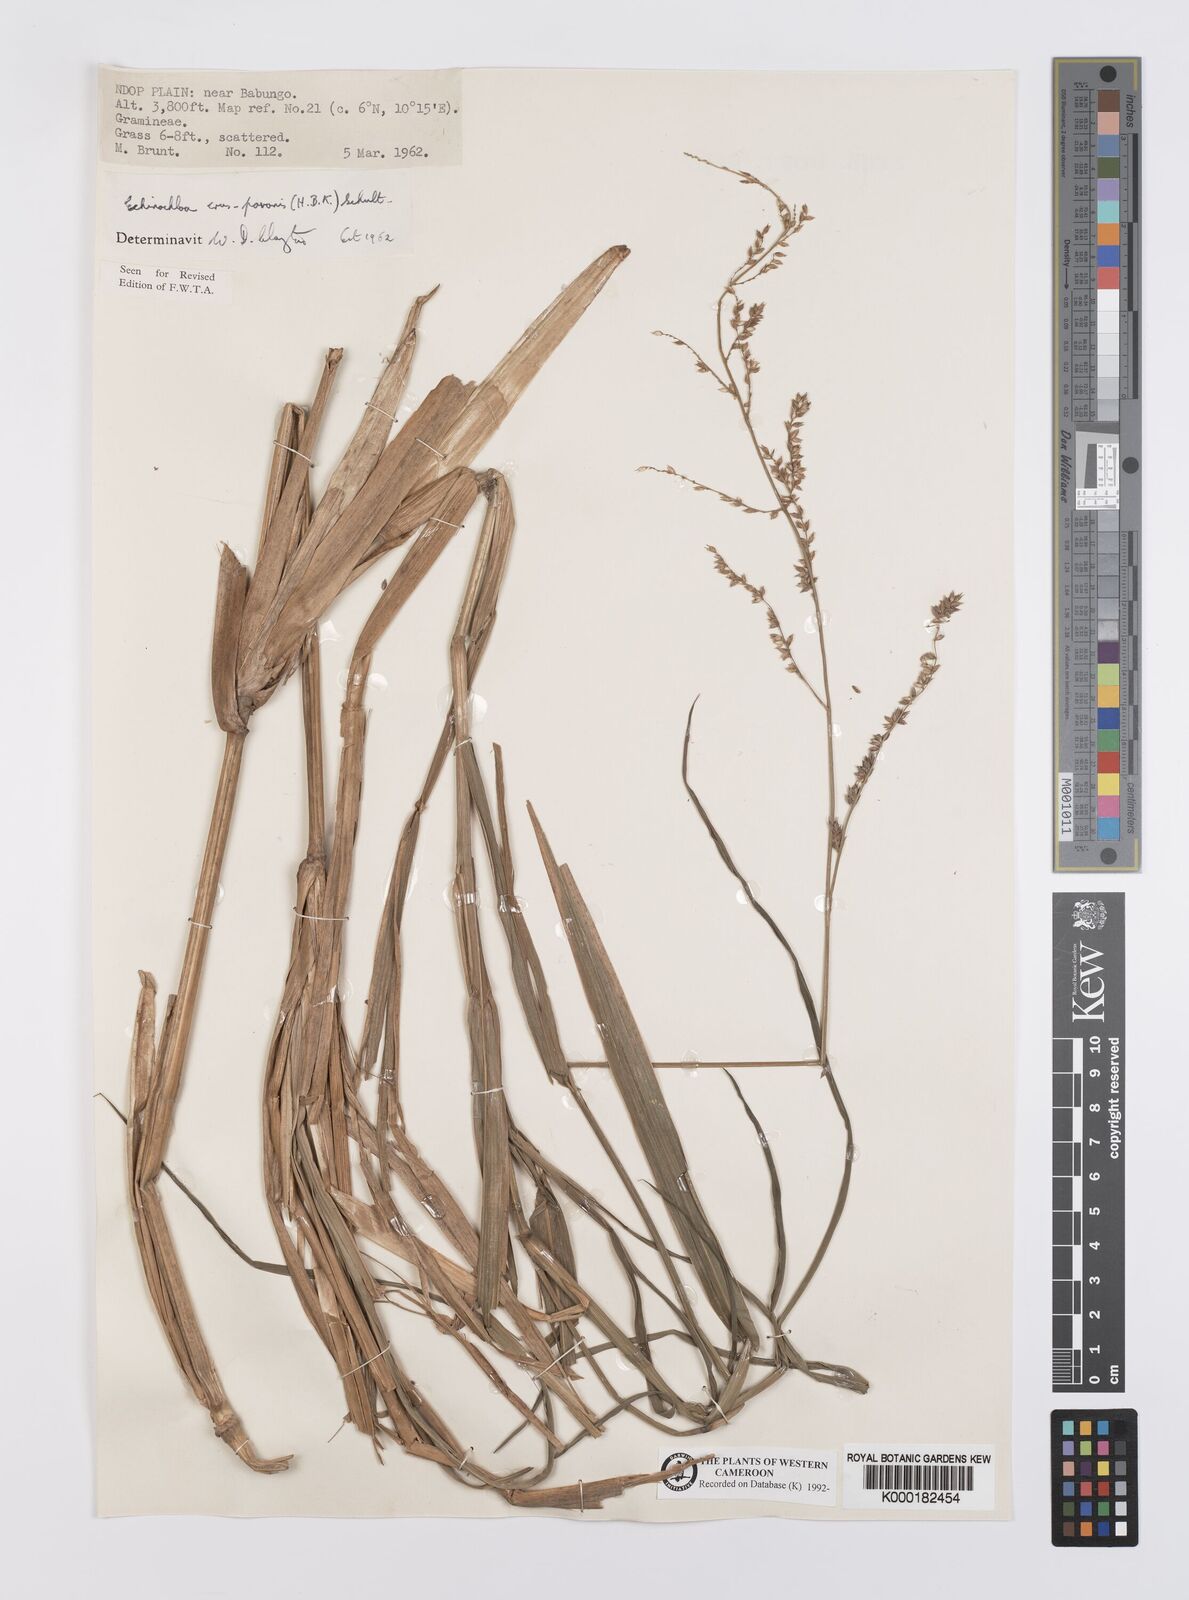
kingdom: Plantae
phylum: Tracheophyta
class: Liliopsida
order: Poales
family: Poaceae
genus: Echinochloa
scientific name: Echinochloa crus-pavonis
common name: Gulf cockspur grass
